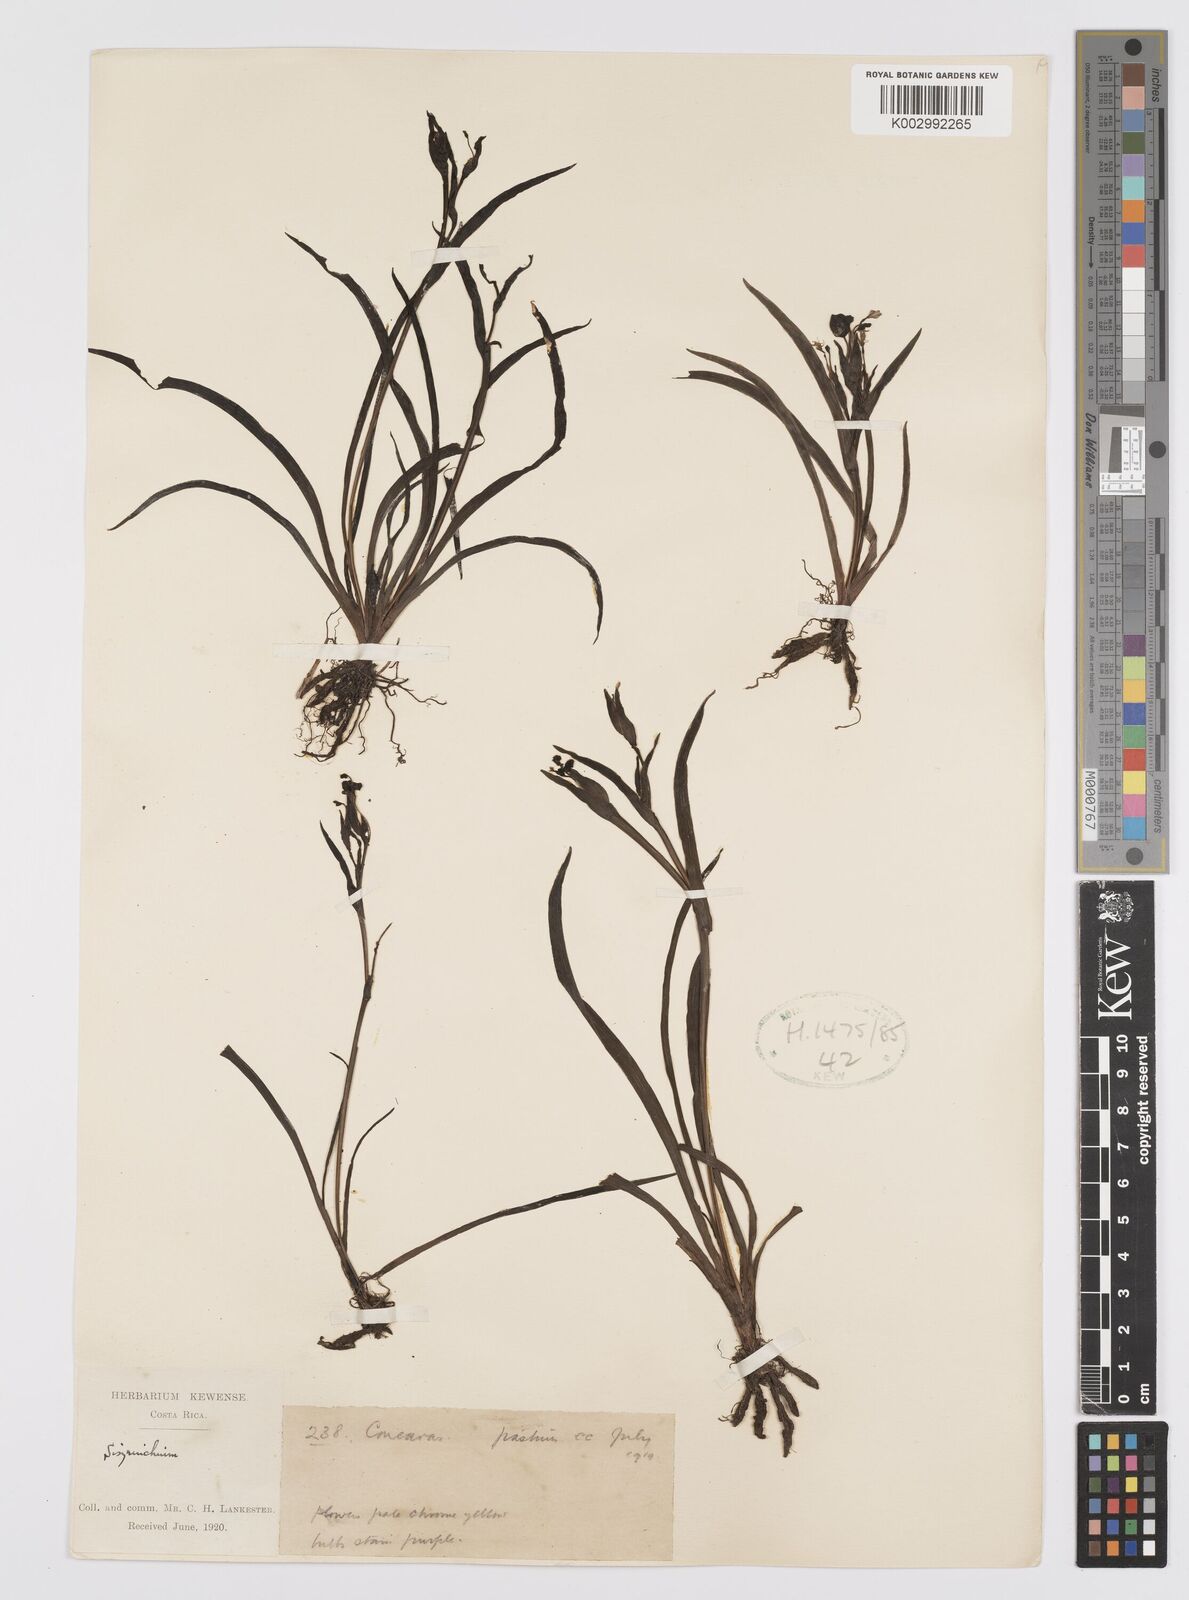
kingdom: Plantae
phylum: Tracheophyta
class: Liliopsida
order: Asparagales
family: Iridaceae
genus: Sisyrinchium
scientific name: Sisyrinchium
